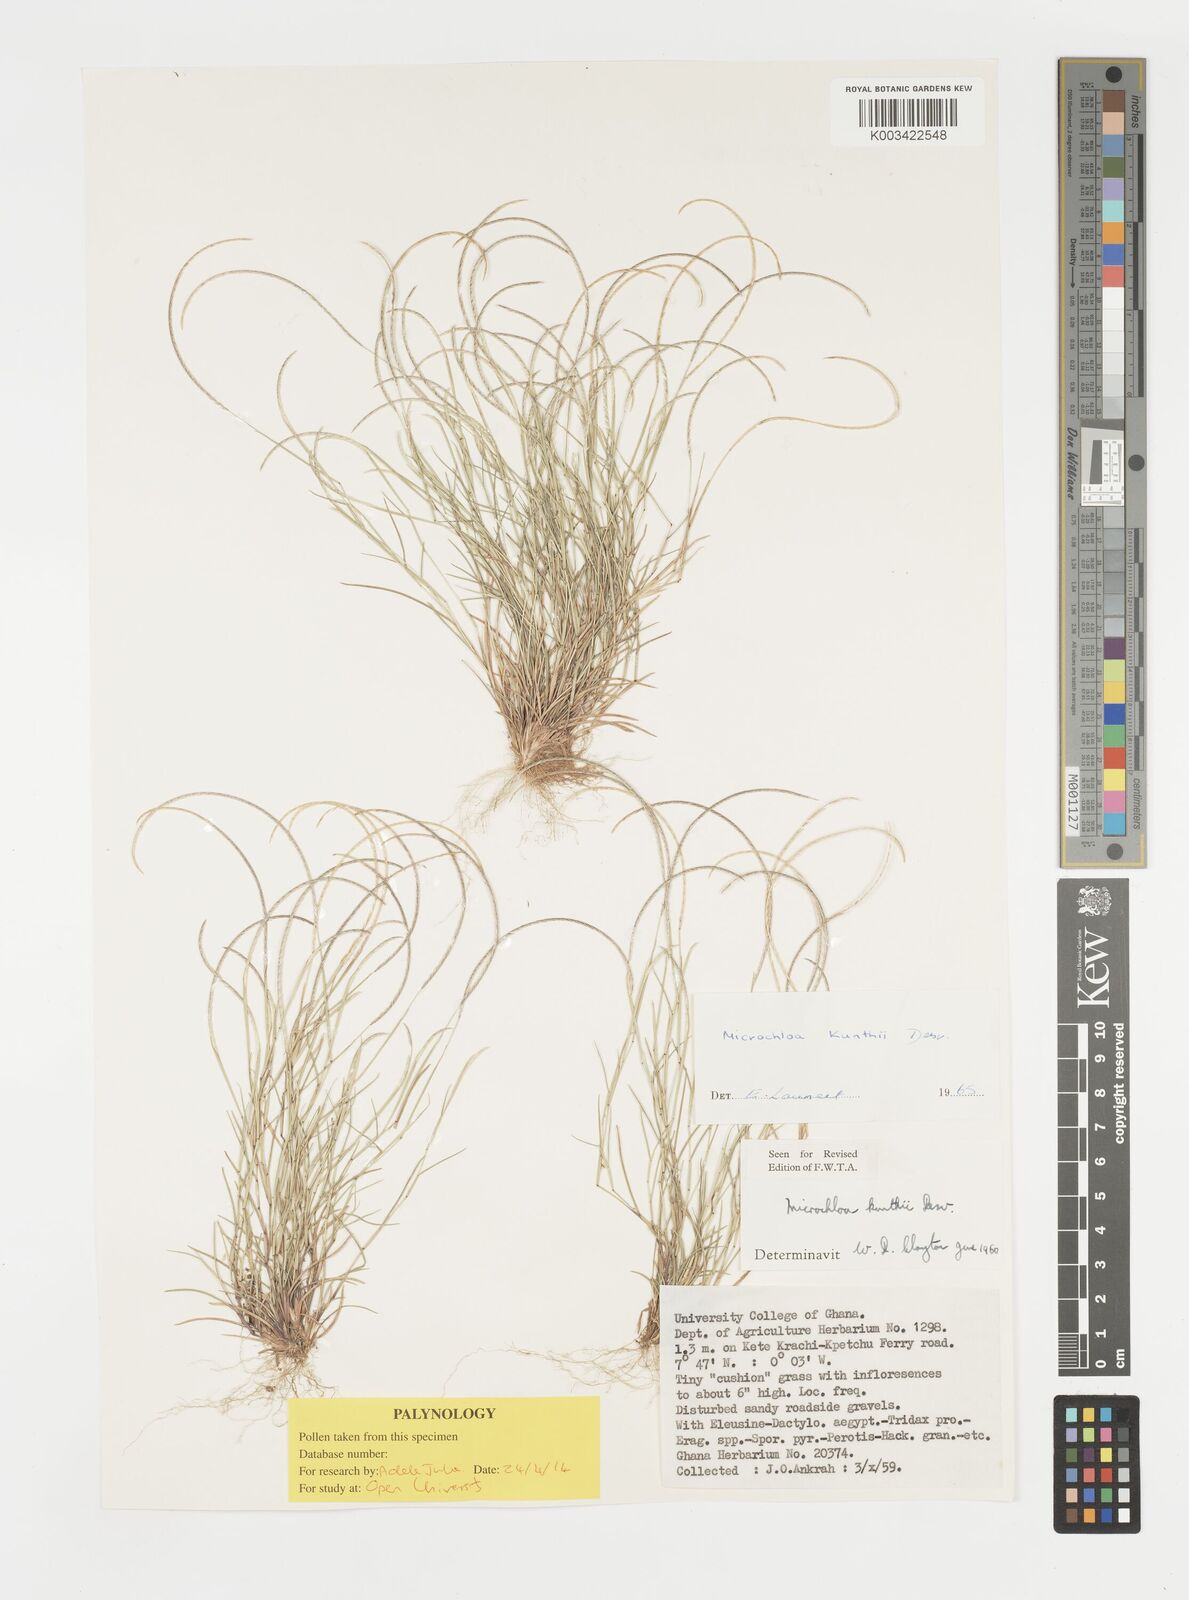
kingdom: Plantae
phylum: Tracheophyta
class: Liliopsida
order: Poales
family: Poaceae
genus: Microchloa
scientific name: Microchloa kunthii
